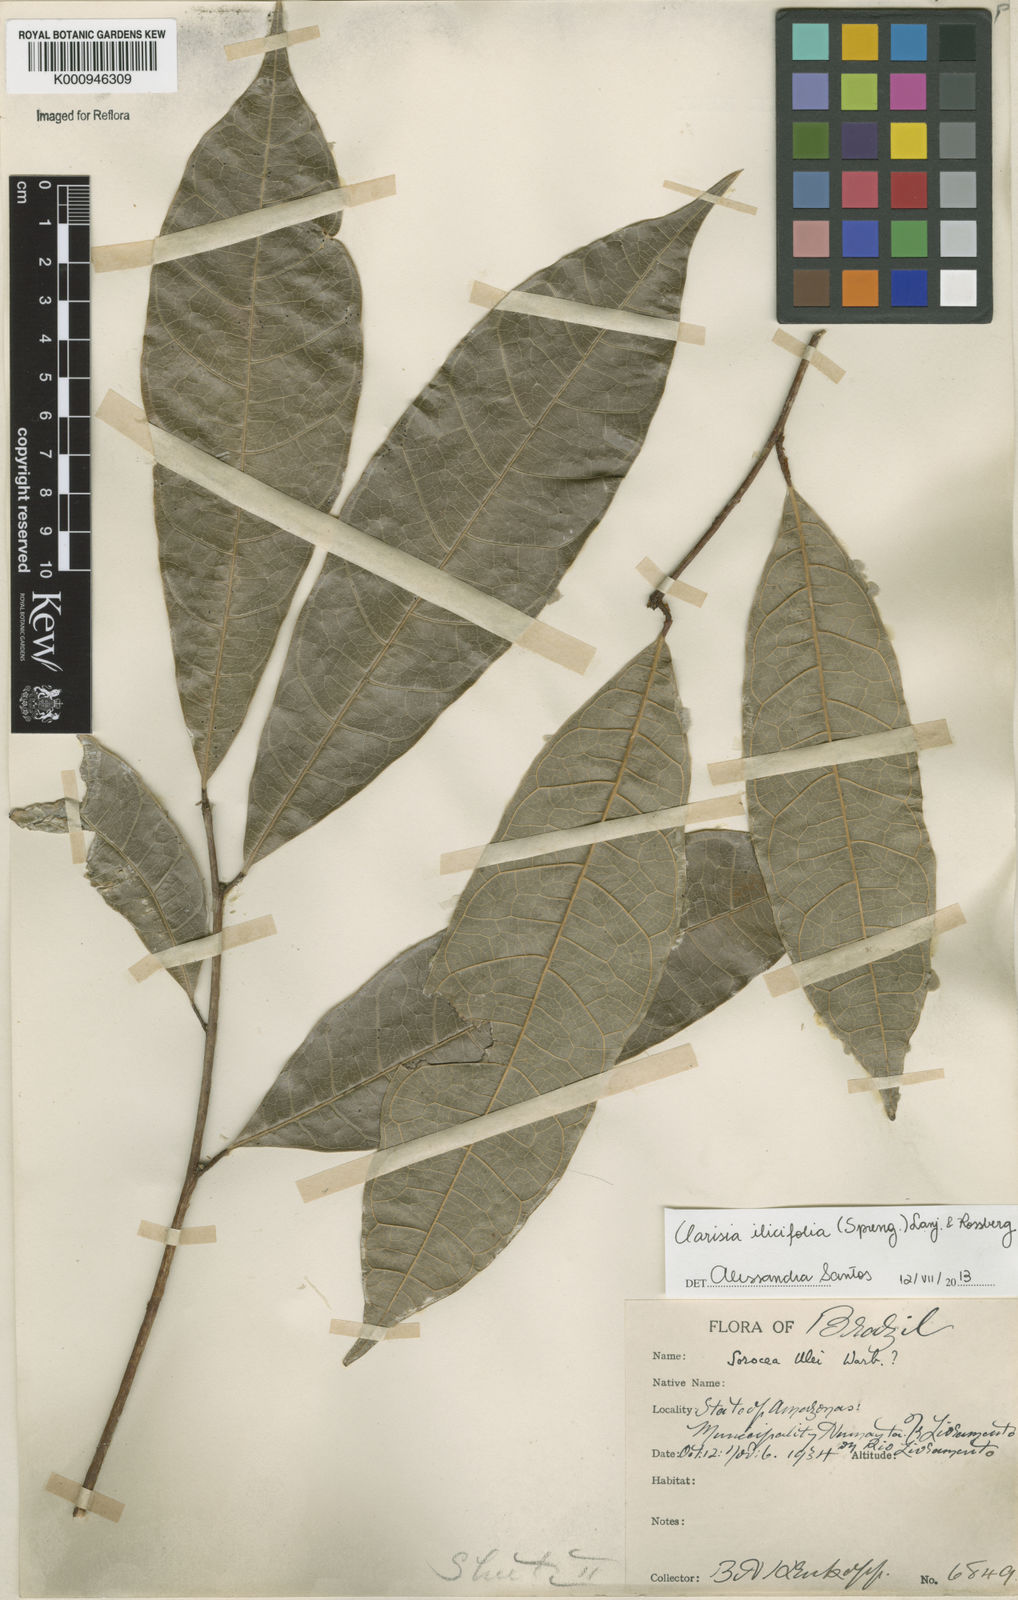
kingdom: Plantae
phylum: Tracheophyta
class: Magnoliopsida
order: Rosales
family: Moraceae
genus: Clarisia
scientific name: Clarisia ilicifolia
